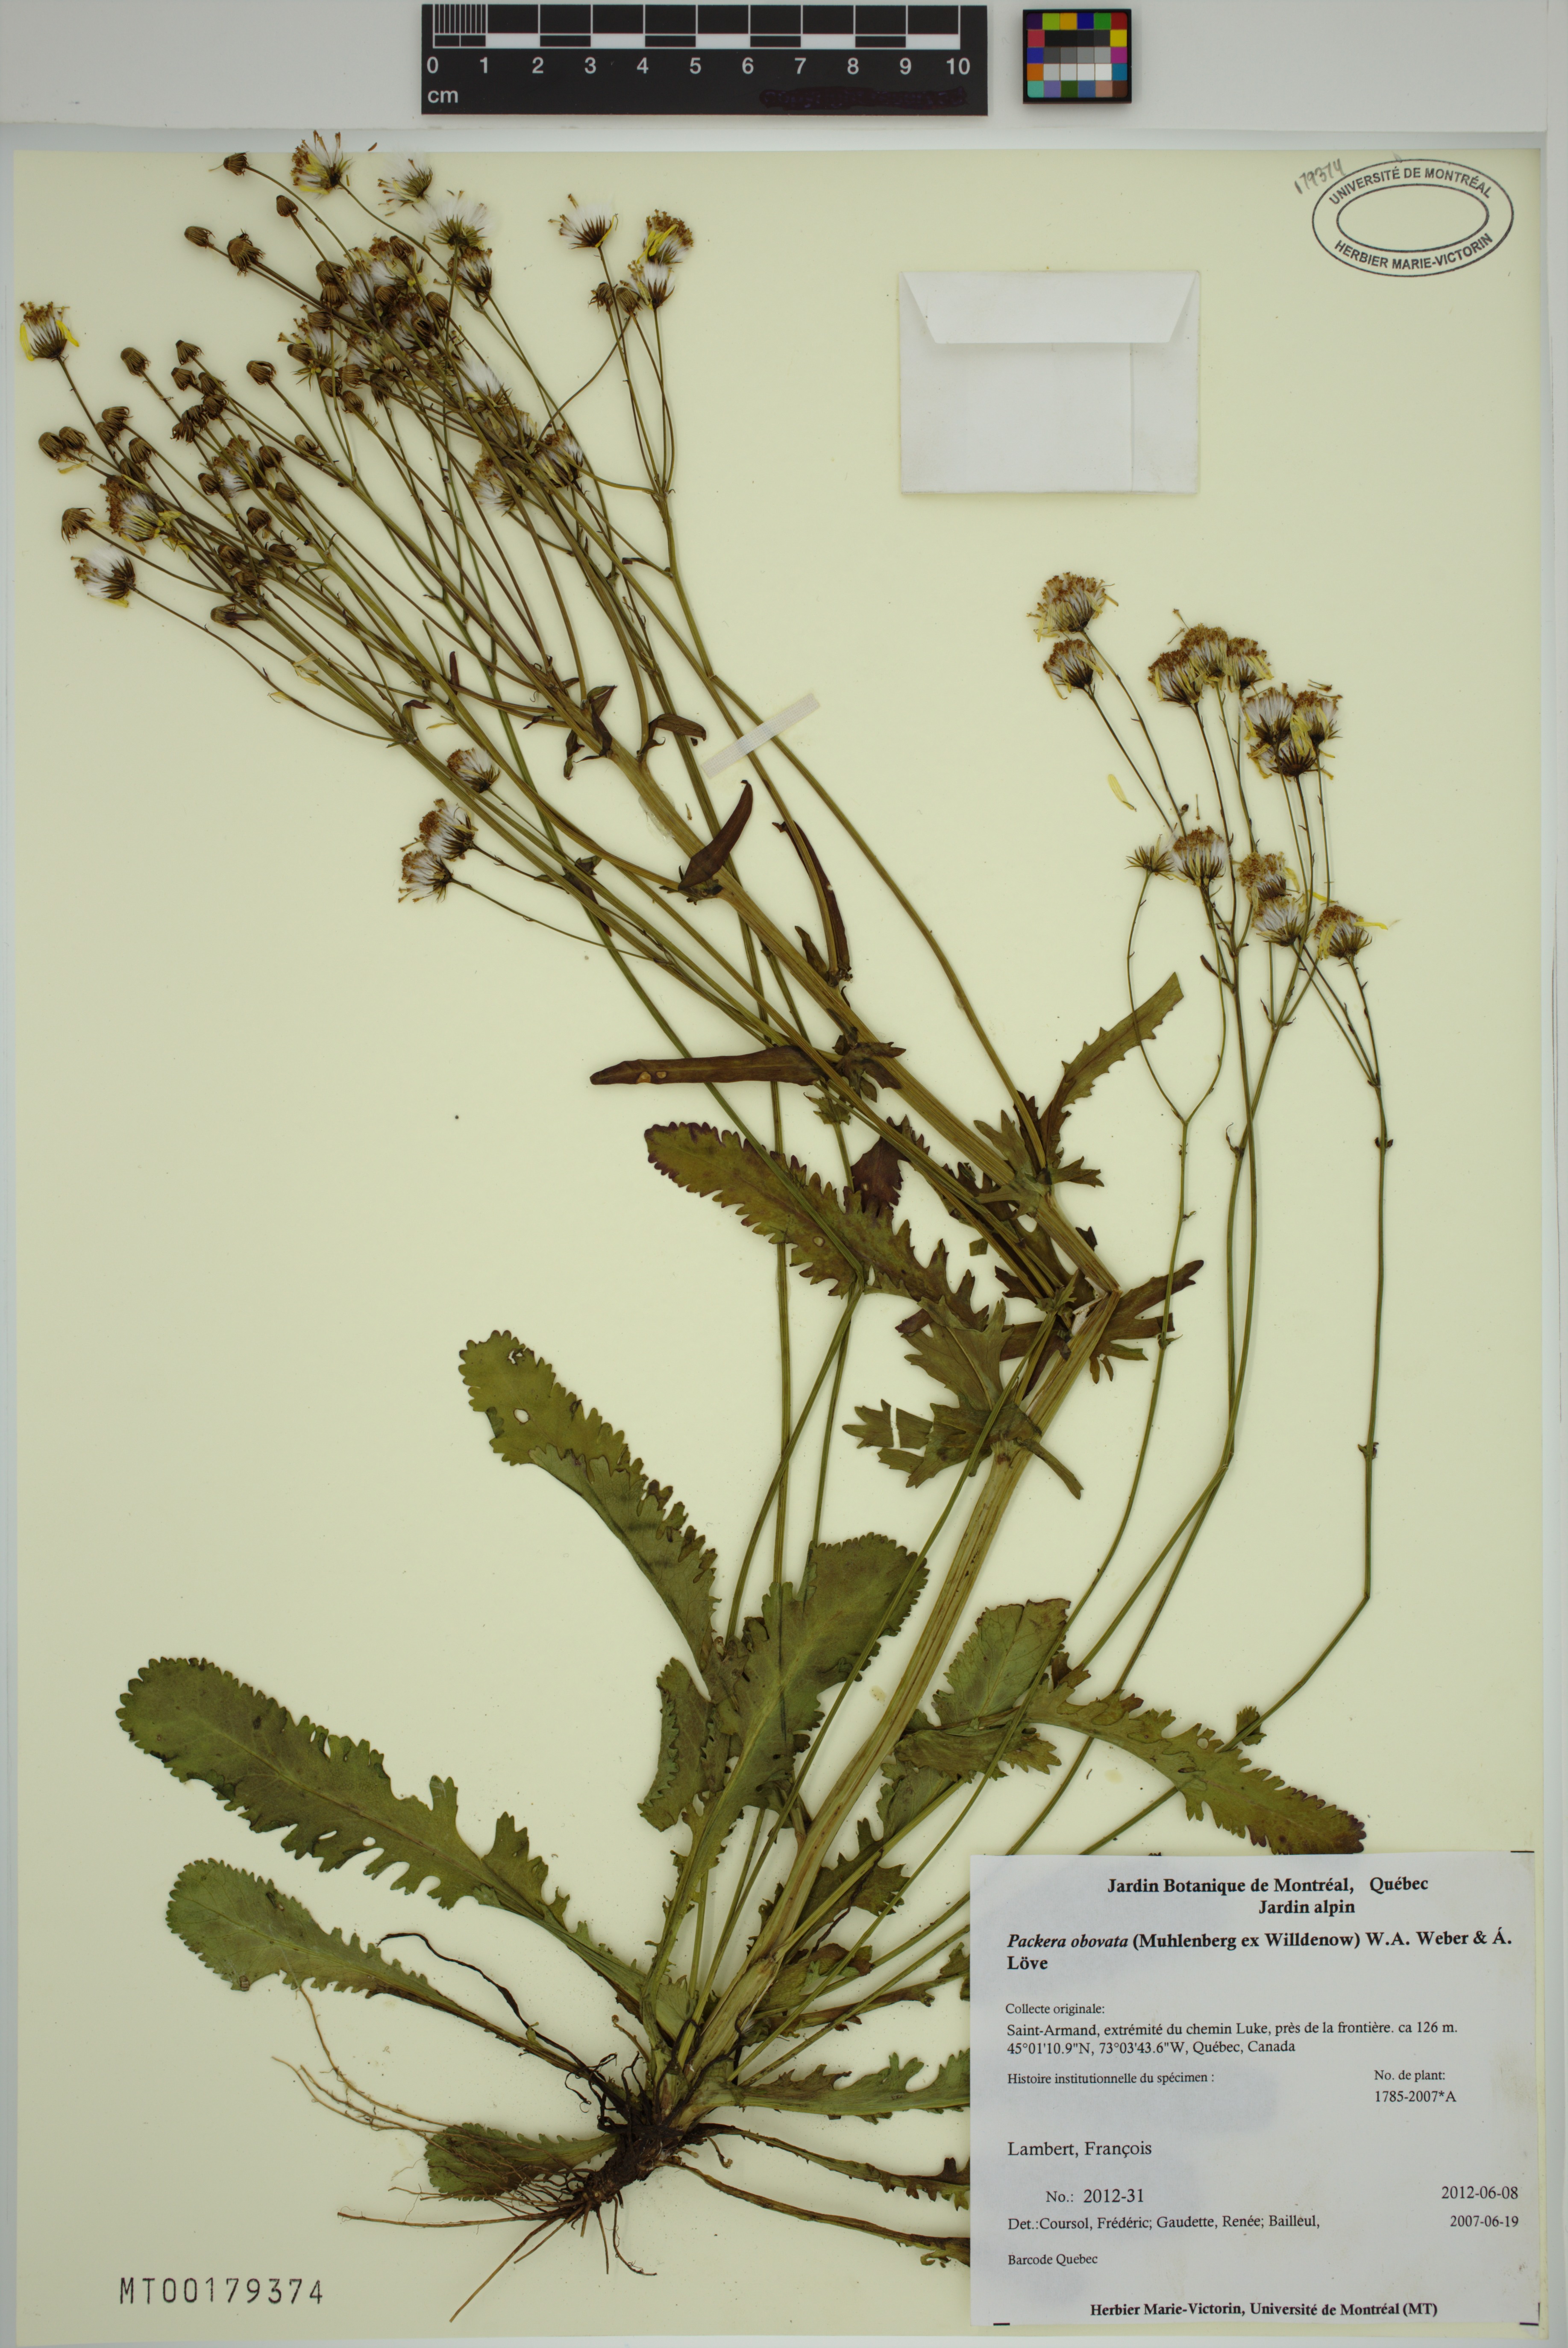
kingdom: Plantae
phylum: Tracheophyta
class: Magnoliopsida
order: Asterales
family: Asteraceae
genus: Packera
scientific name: Packera obovata
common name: Round-leaf ragwort
